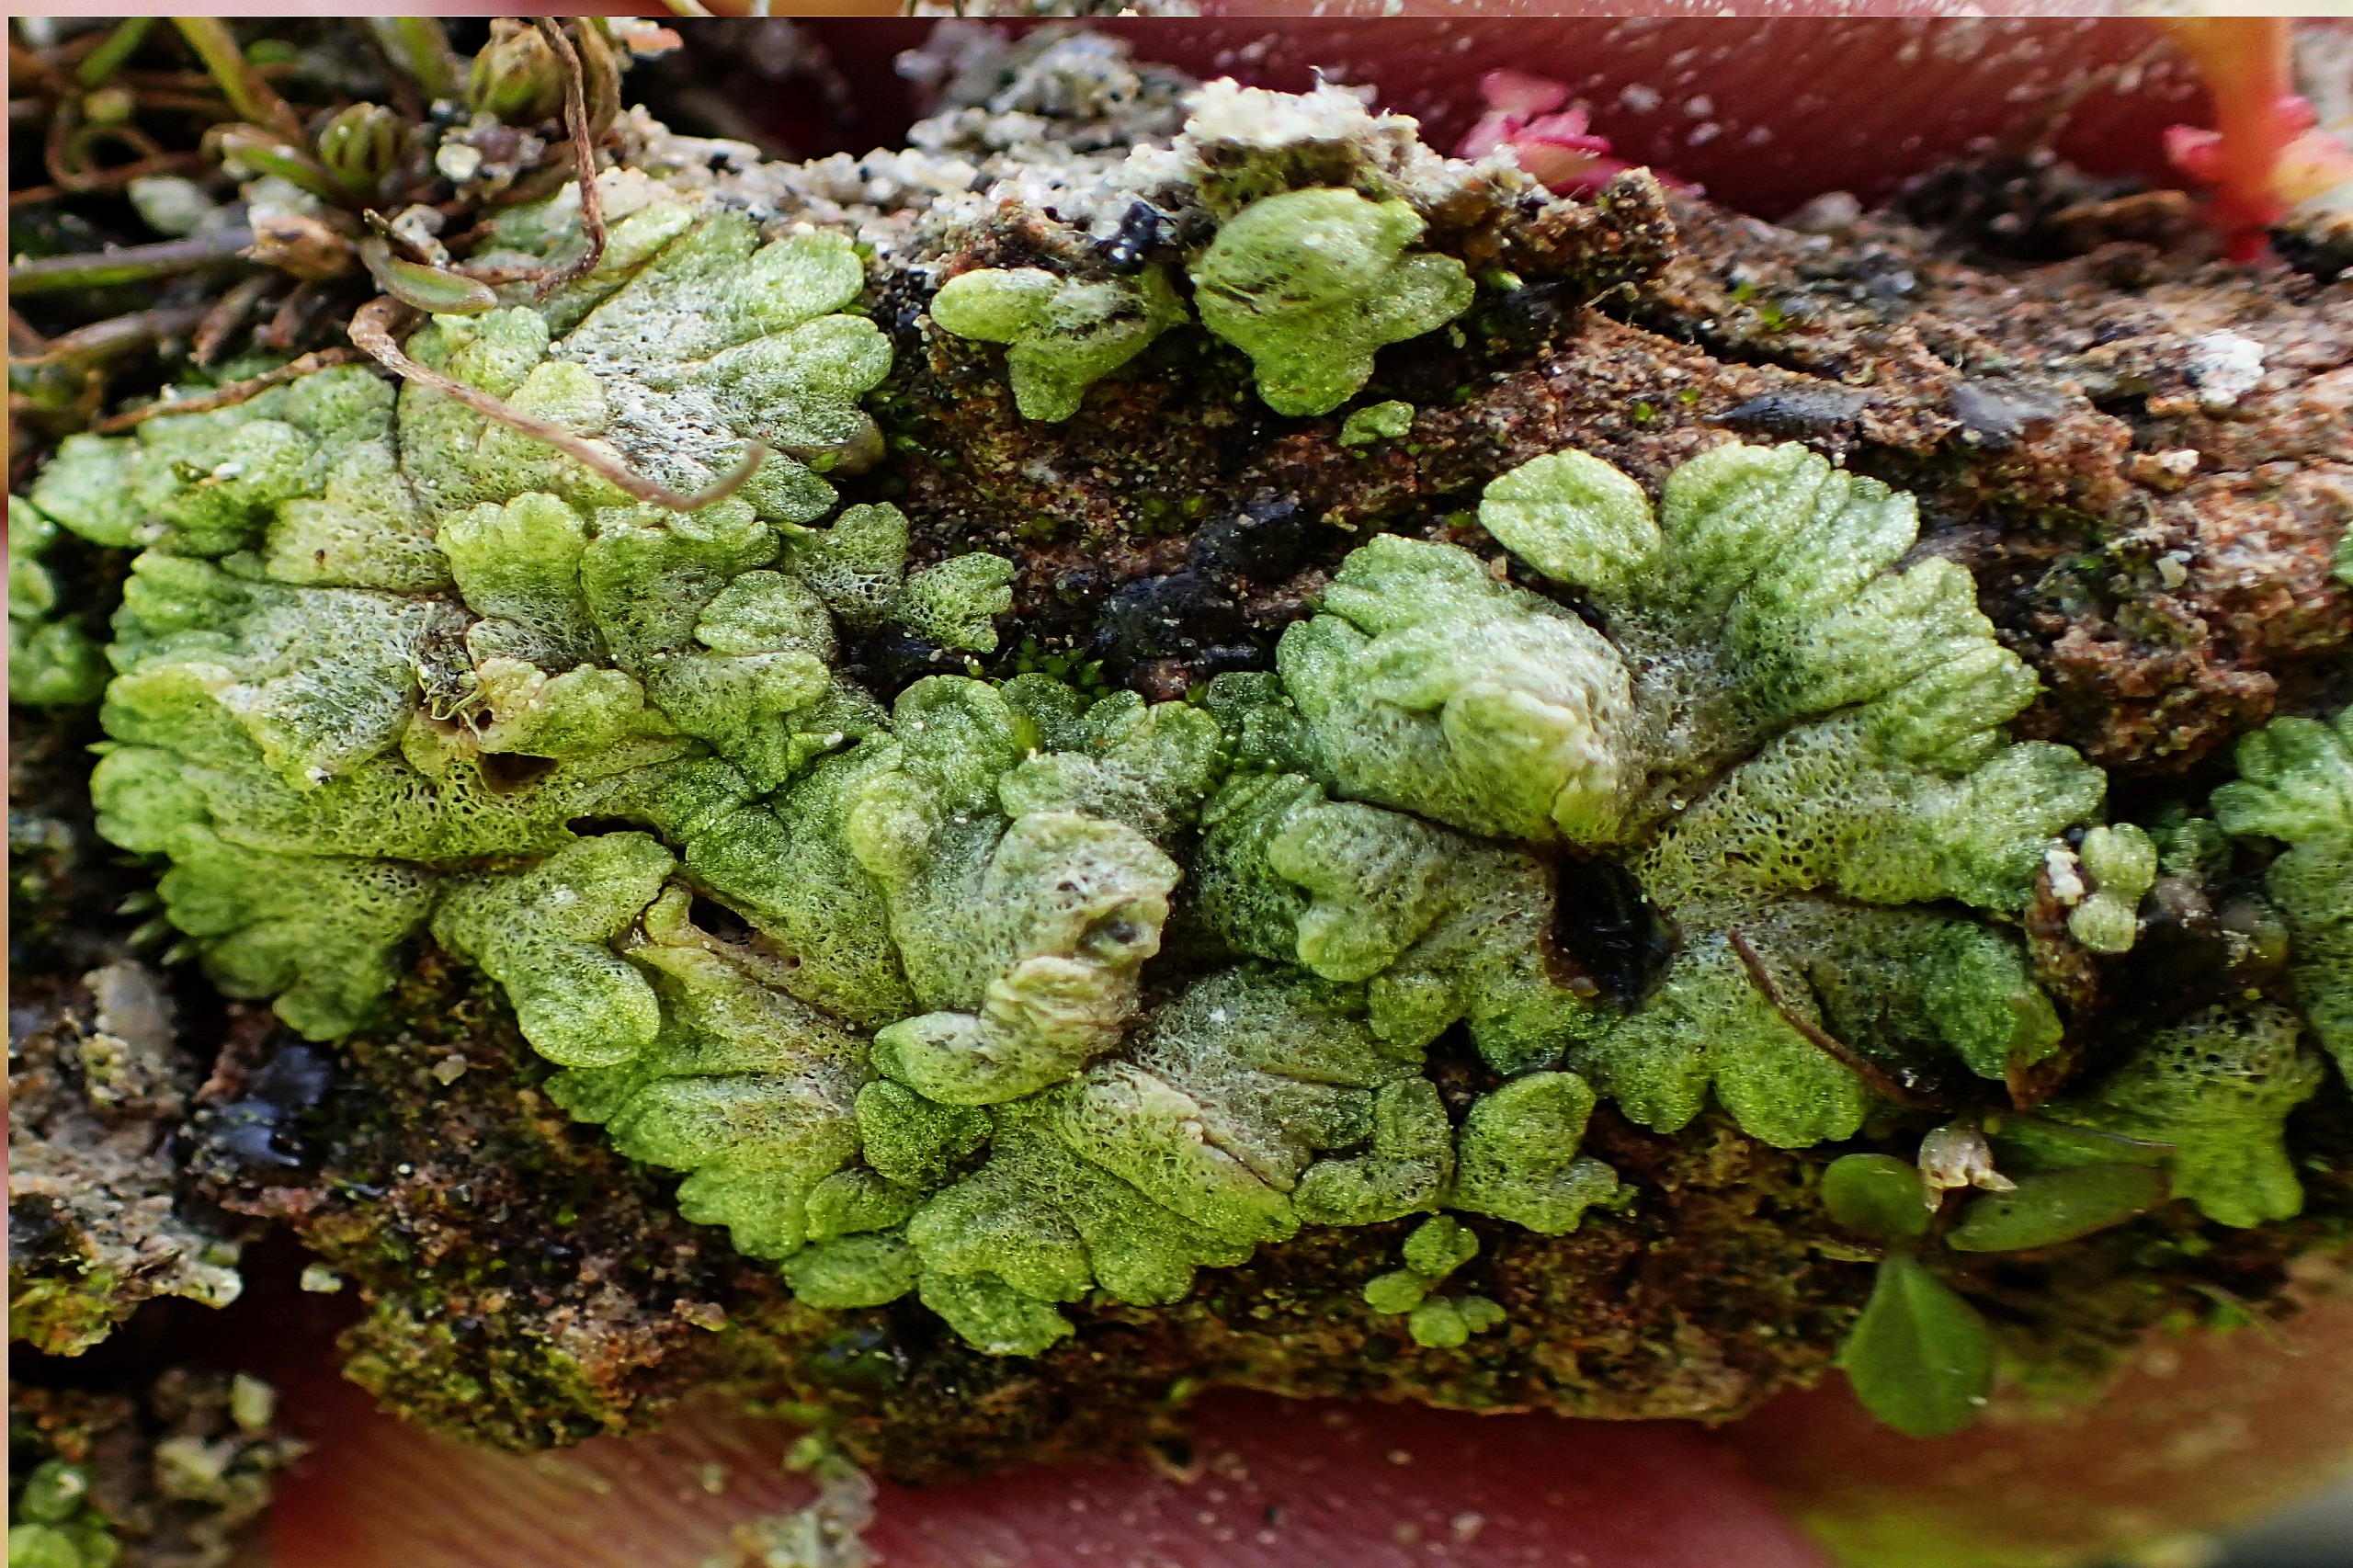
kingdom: Plantae
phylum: Marchantiophyta
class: Marchantiopsida
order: Marchantiales
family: Ricciaceae
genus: Riccia
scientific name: Riccia cavernosa
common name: Grubet stjerneløv
